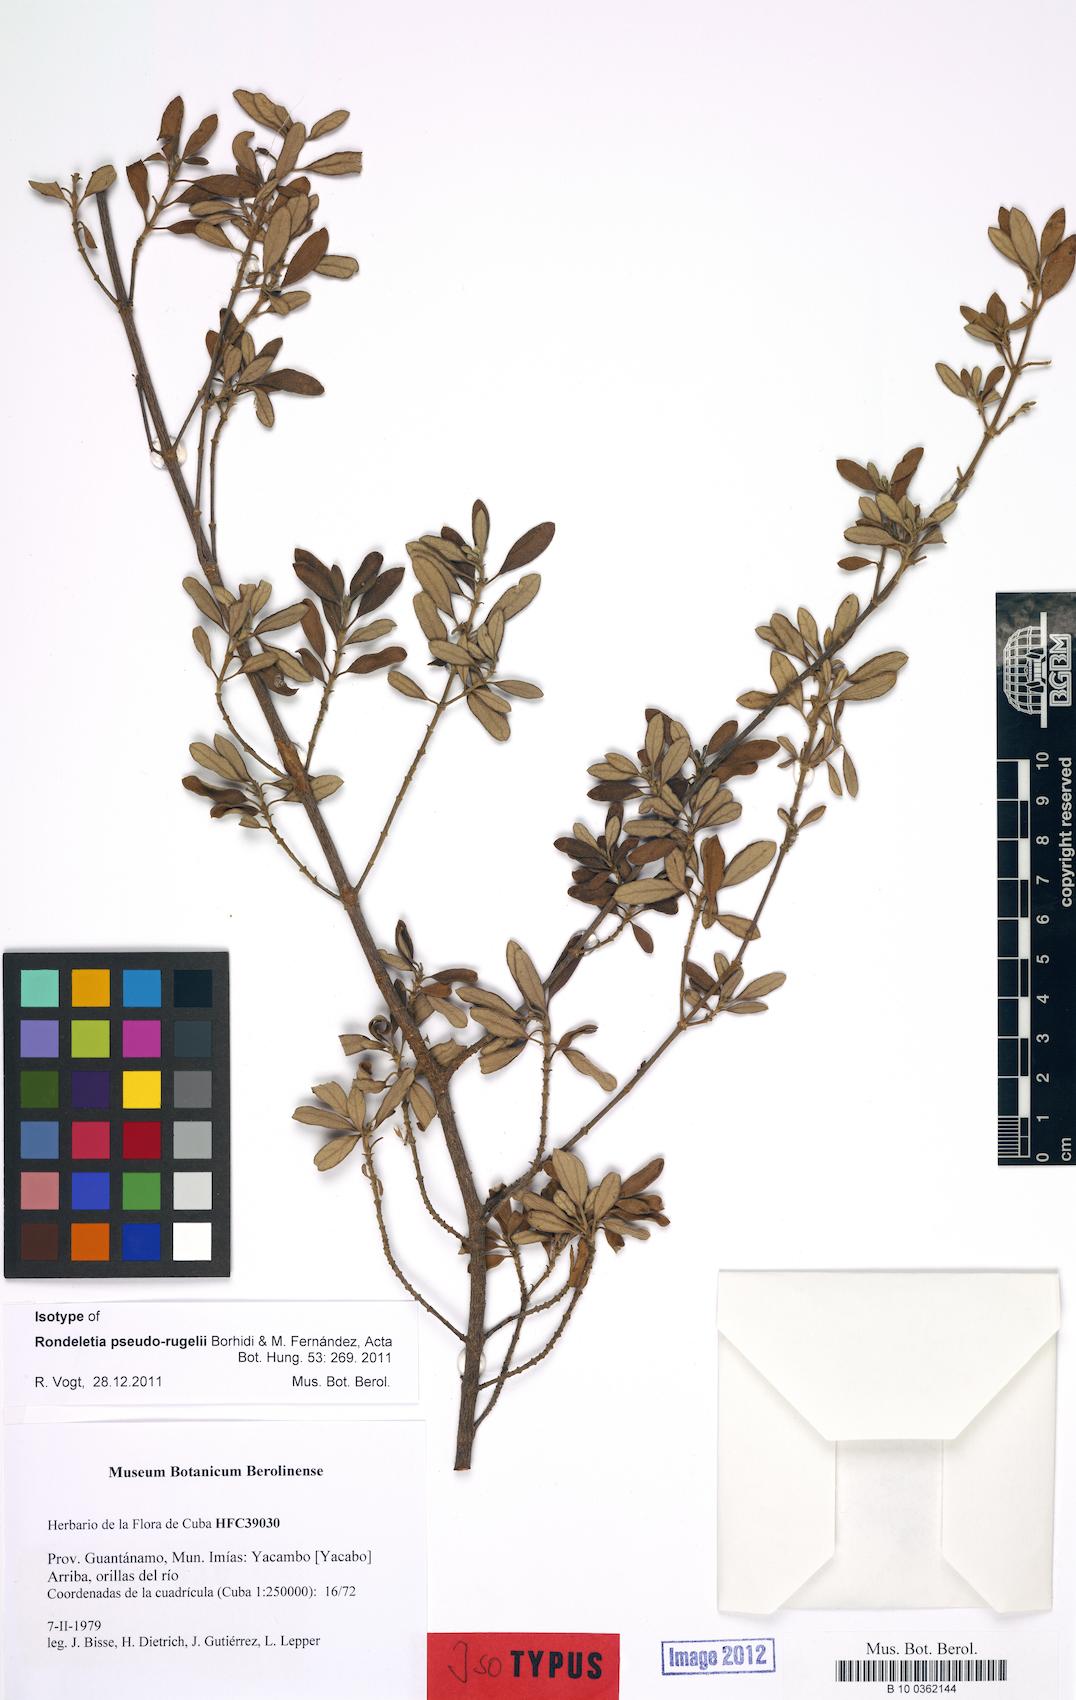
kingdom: Plantae
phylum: Tracheophyta
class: Magnoliopsida
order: Gentianales
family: Rubiaceae
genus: Rondeletia
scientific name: Rondeletia pseudorugelii
